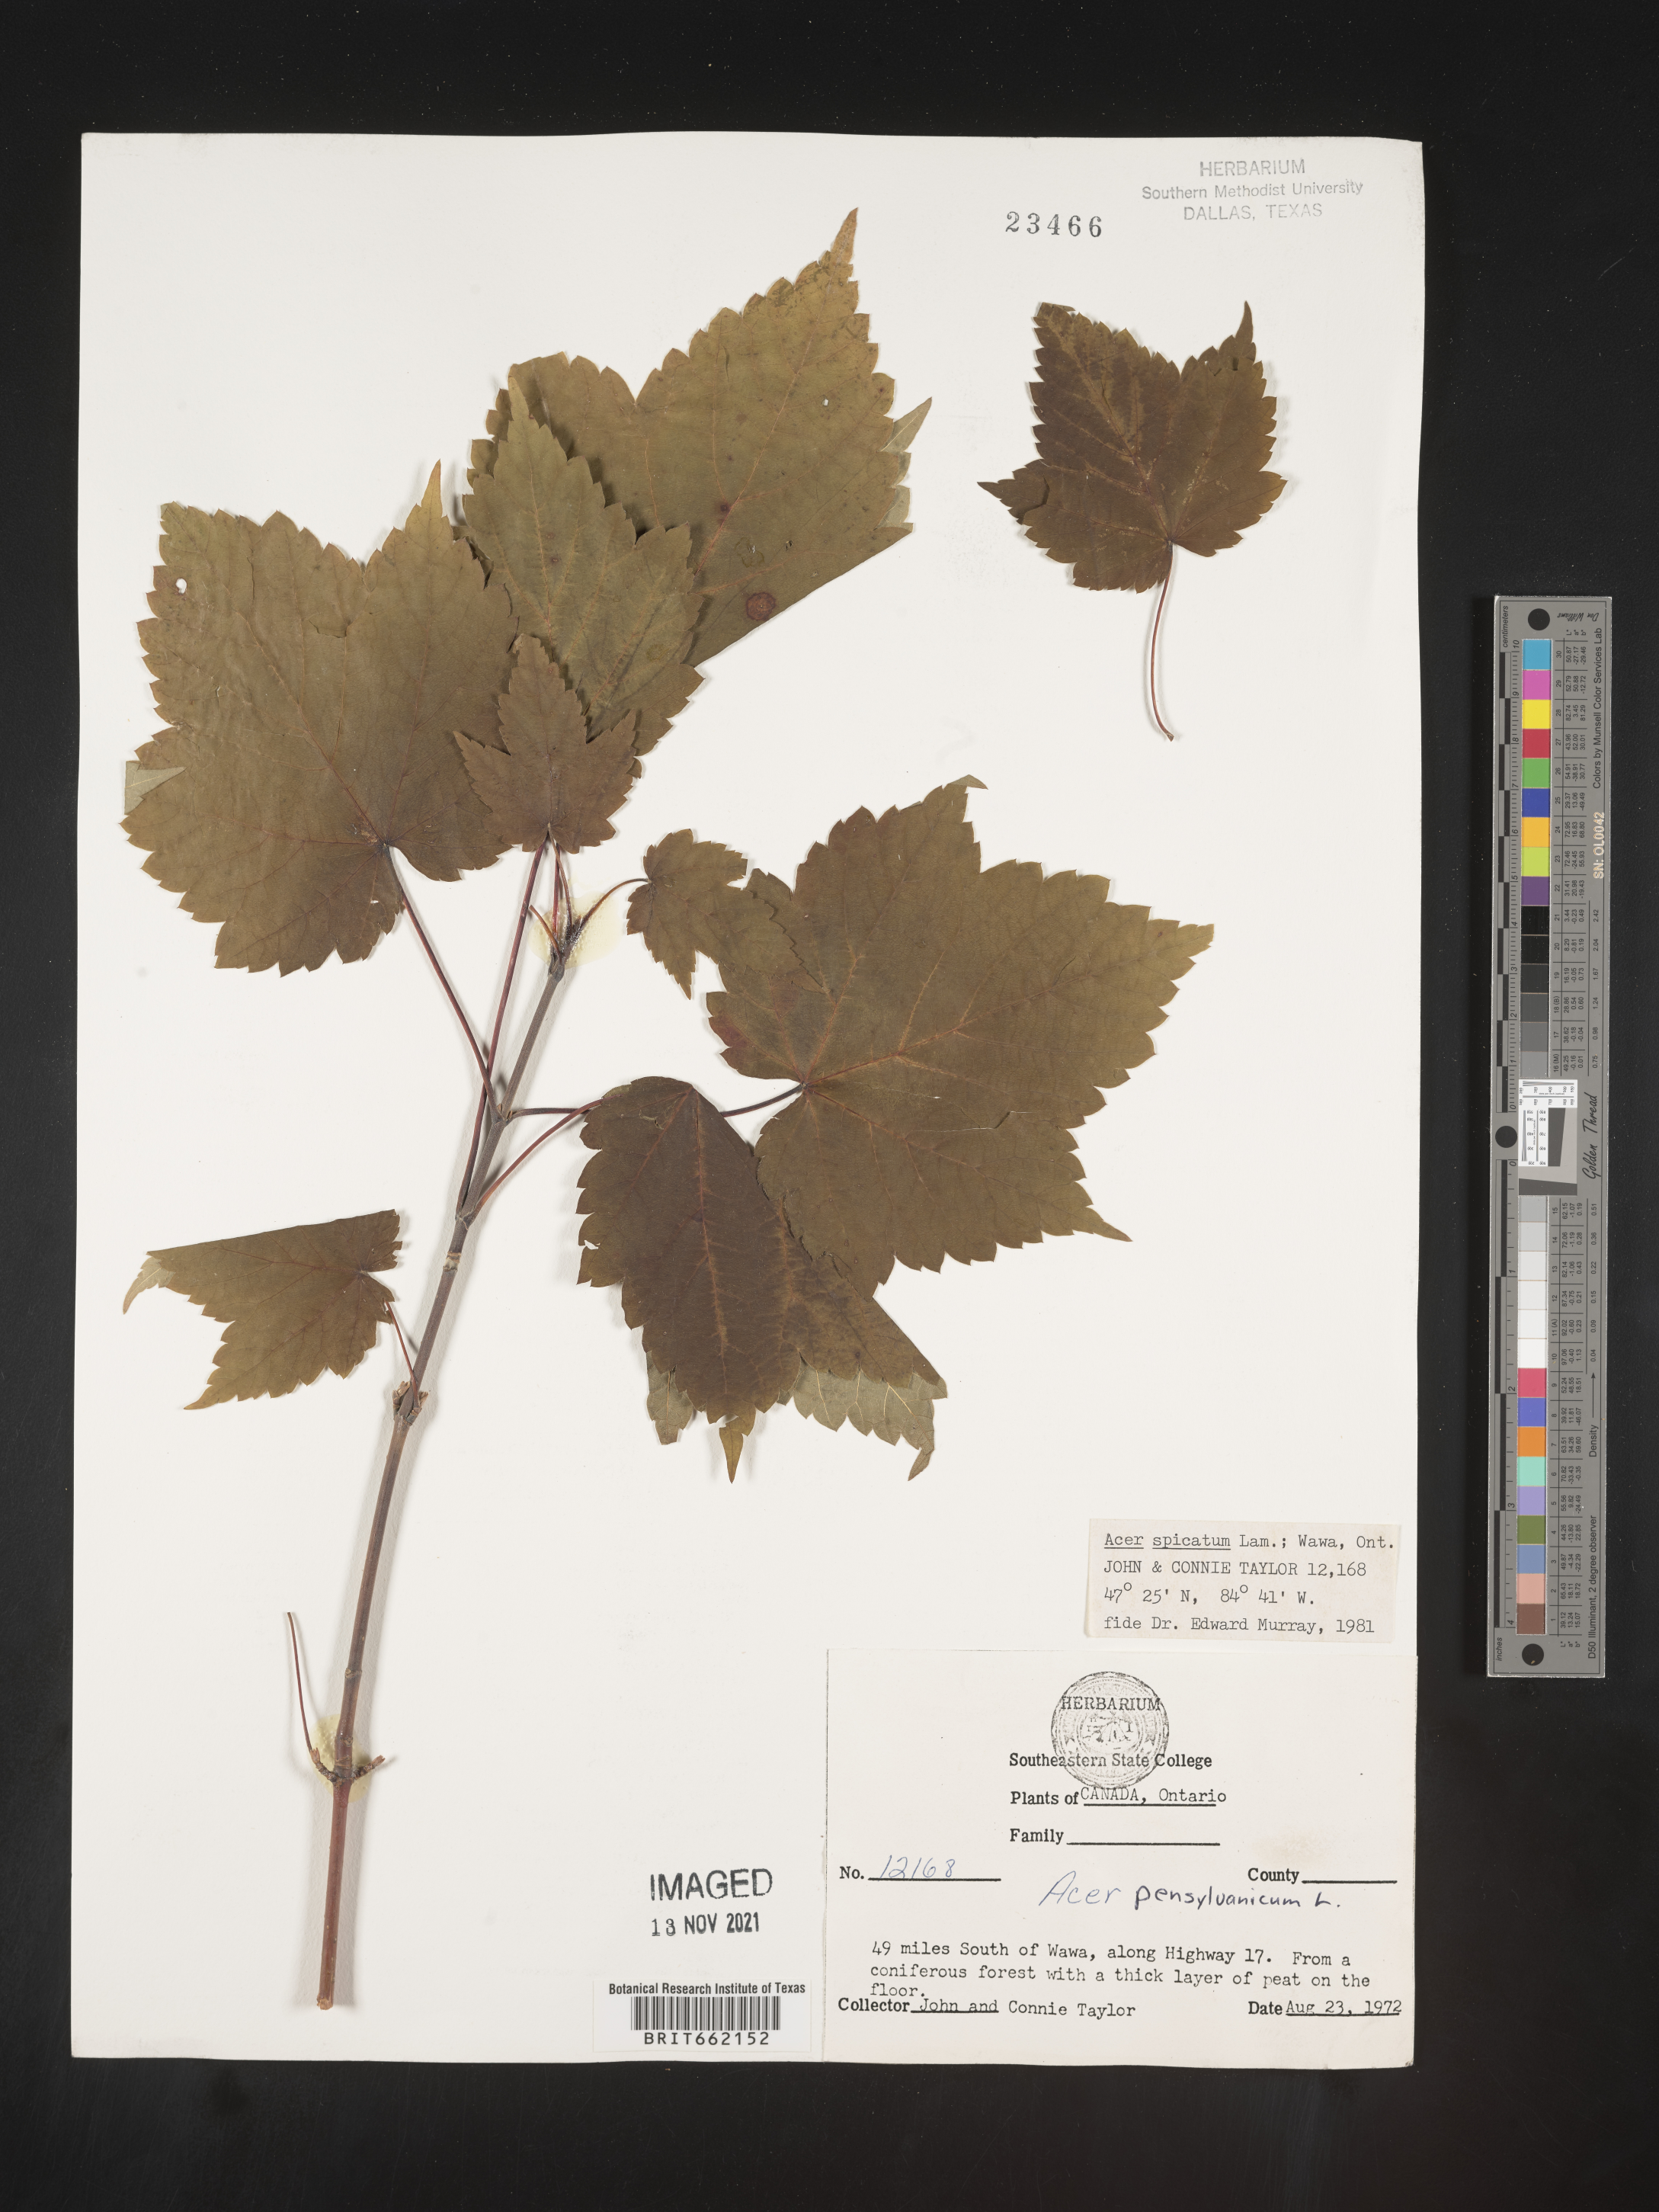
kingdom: Plantae
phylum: Tracheophyta
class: Magnoliopsida
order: Sapindales
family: Sapindaceae
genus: Acer
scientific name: Acer spicatum
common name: Mountain maple
